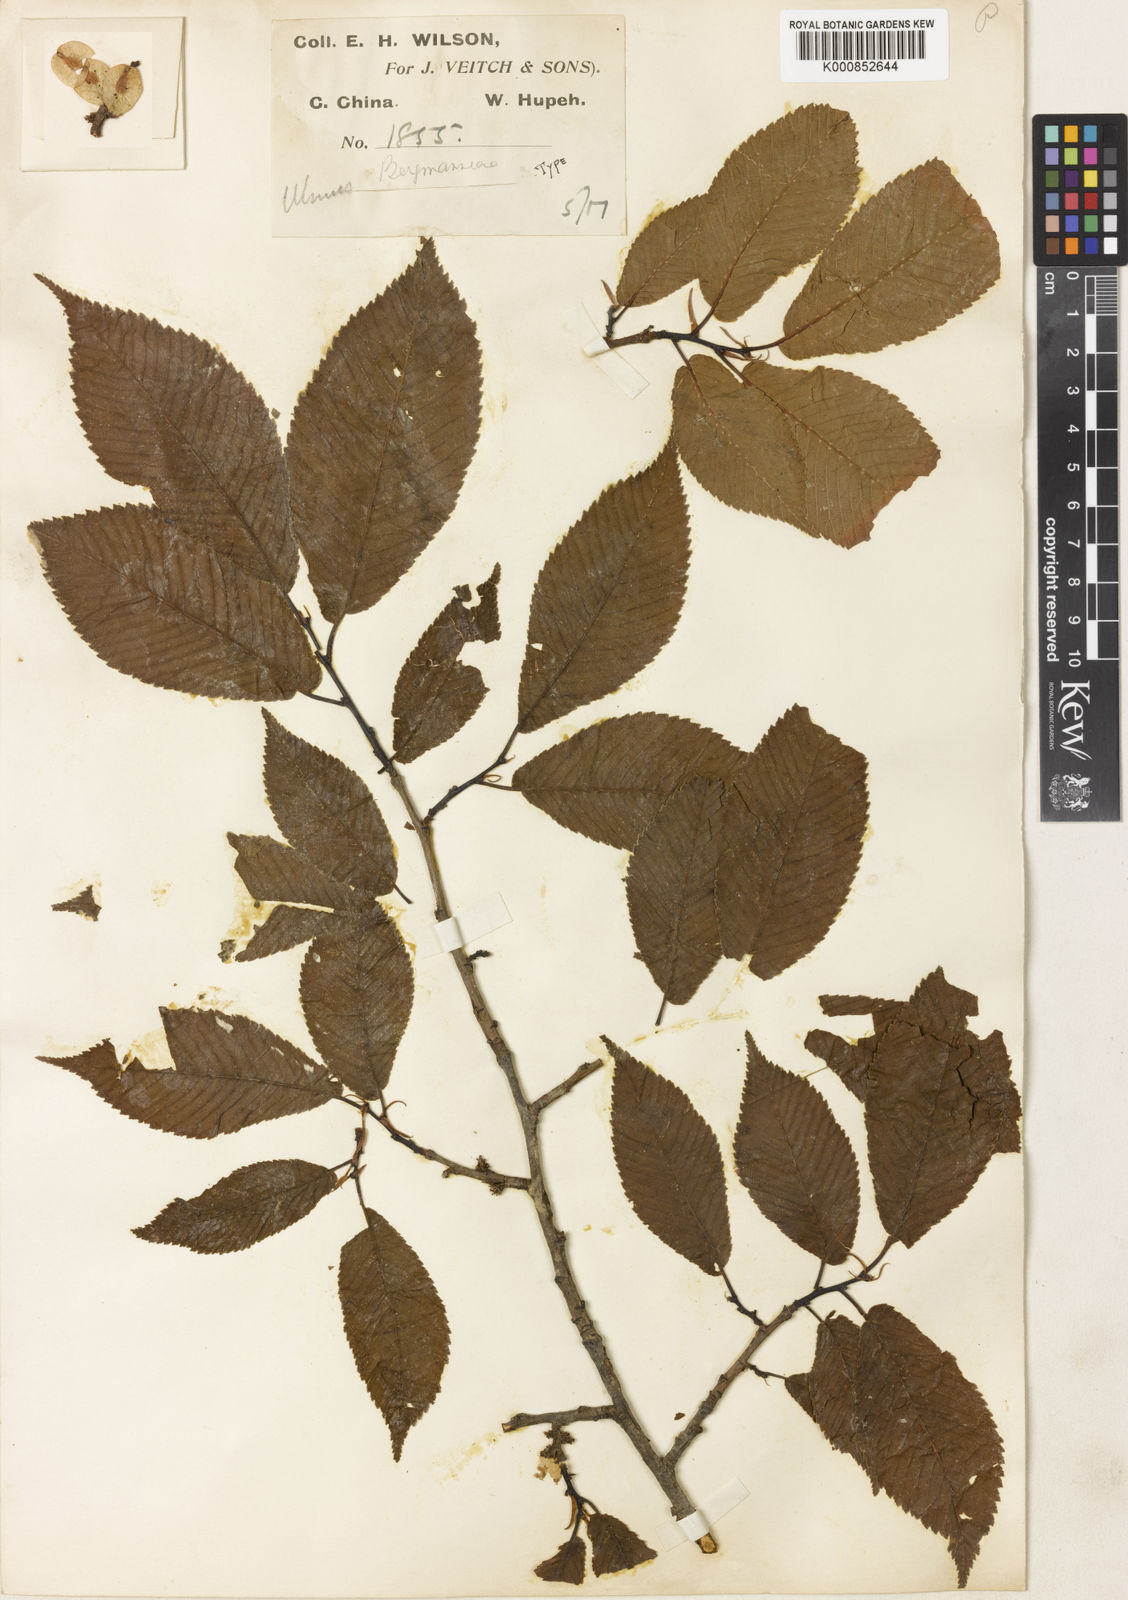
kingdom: Plantae
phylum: Tracheophyta
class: Magnoliopsida
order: Rosales
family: Ulmaceae
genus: Ulmus
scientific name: Ulmus bergmanniana
